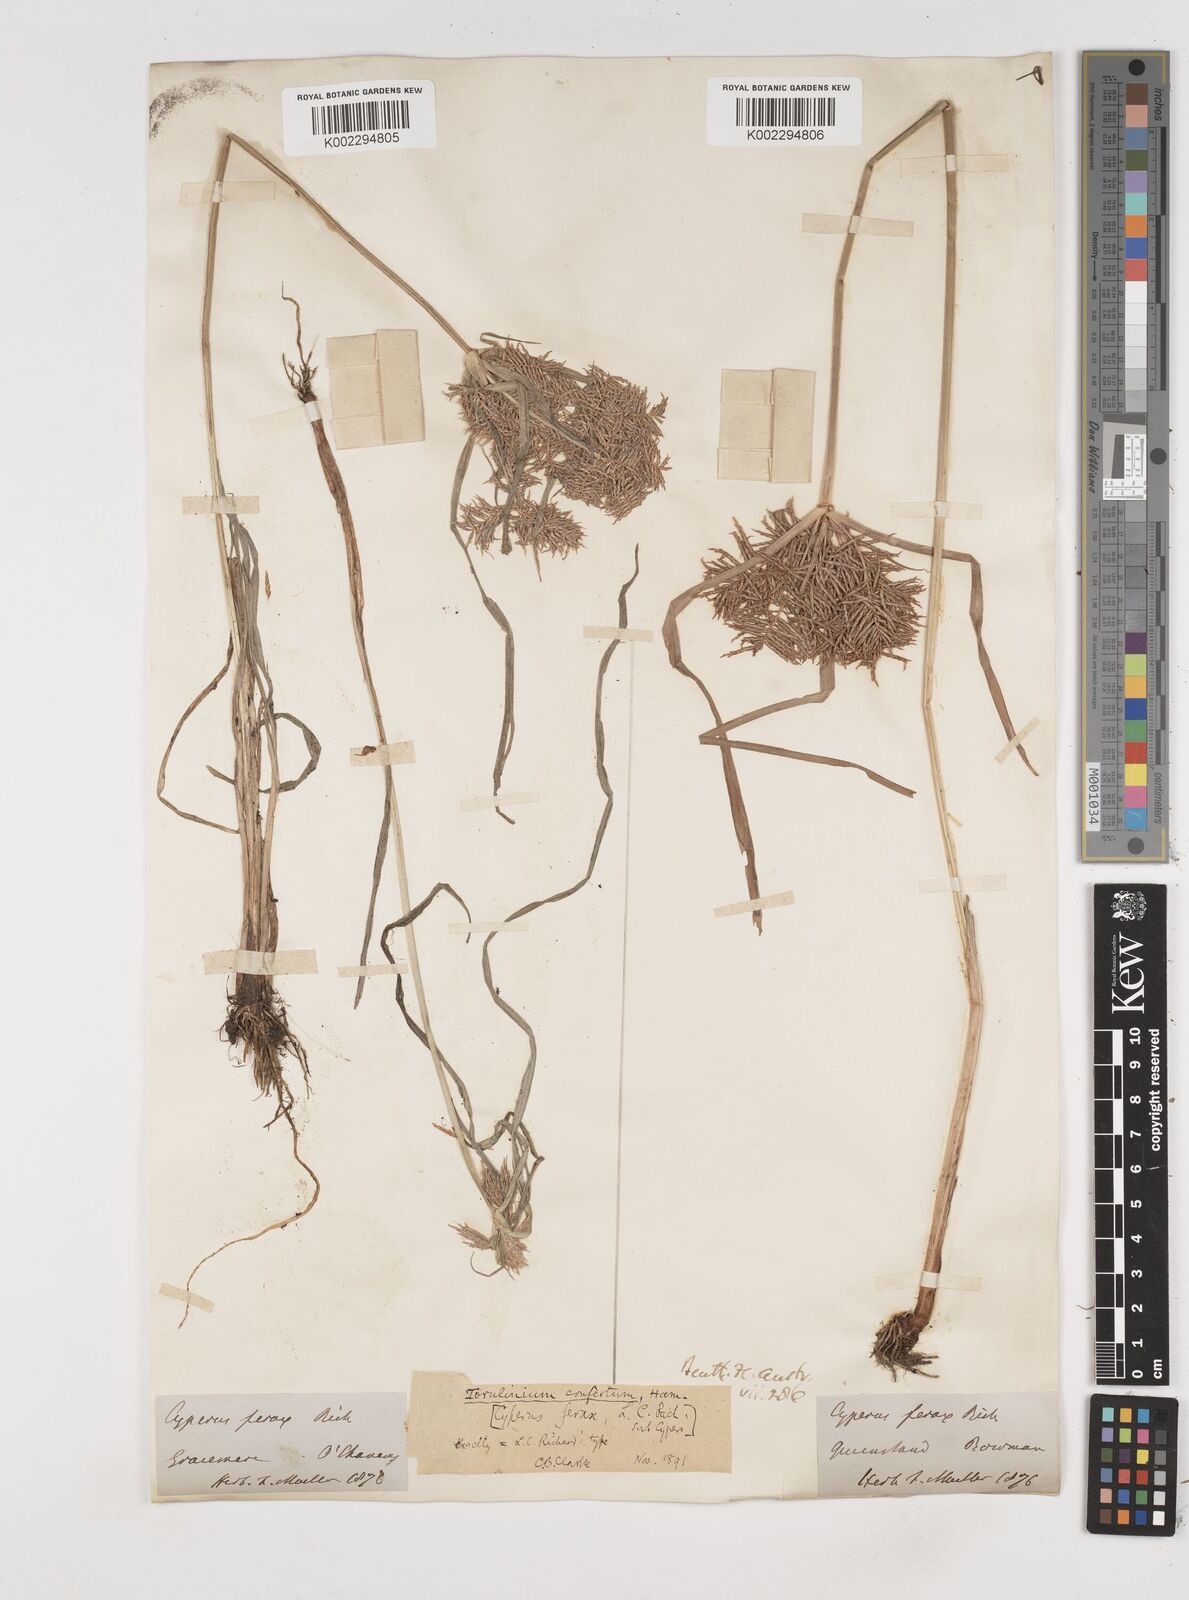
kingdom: Plantae
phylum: Tracheophyta
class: Liliopsida
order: Poales
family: Cyperaceae
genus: Cyperus
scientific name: Cyperus odoratus
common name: Fragrant flatsedge
